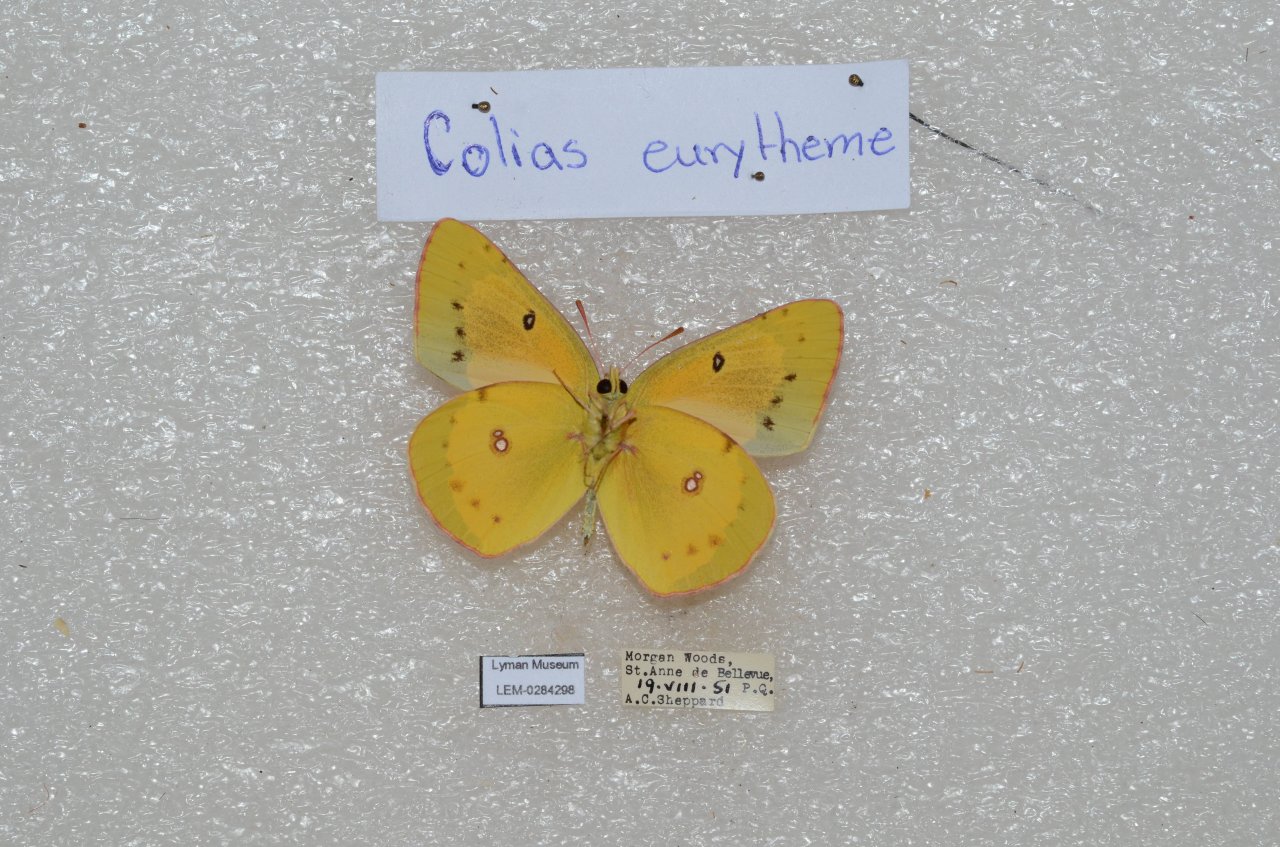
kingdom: Animalia
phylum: Arthropoda
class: Insecta
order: Lepidoptera
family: Pieridae
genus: Colias
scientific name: Colias eurytheme
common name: Orange Sulphur
